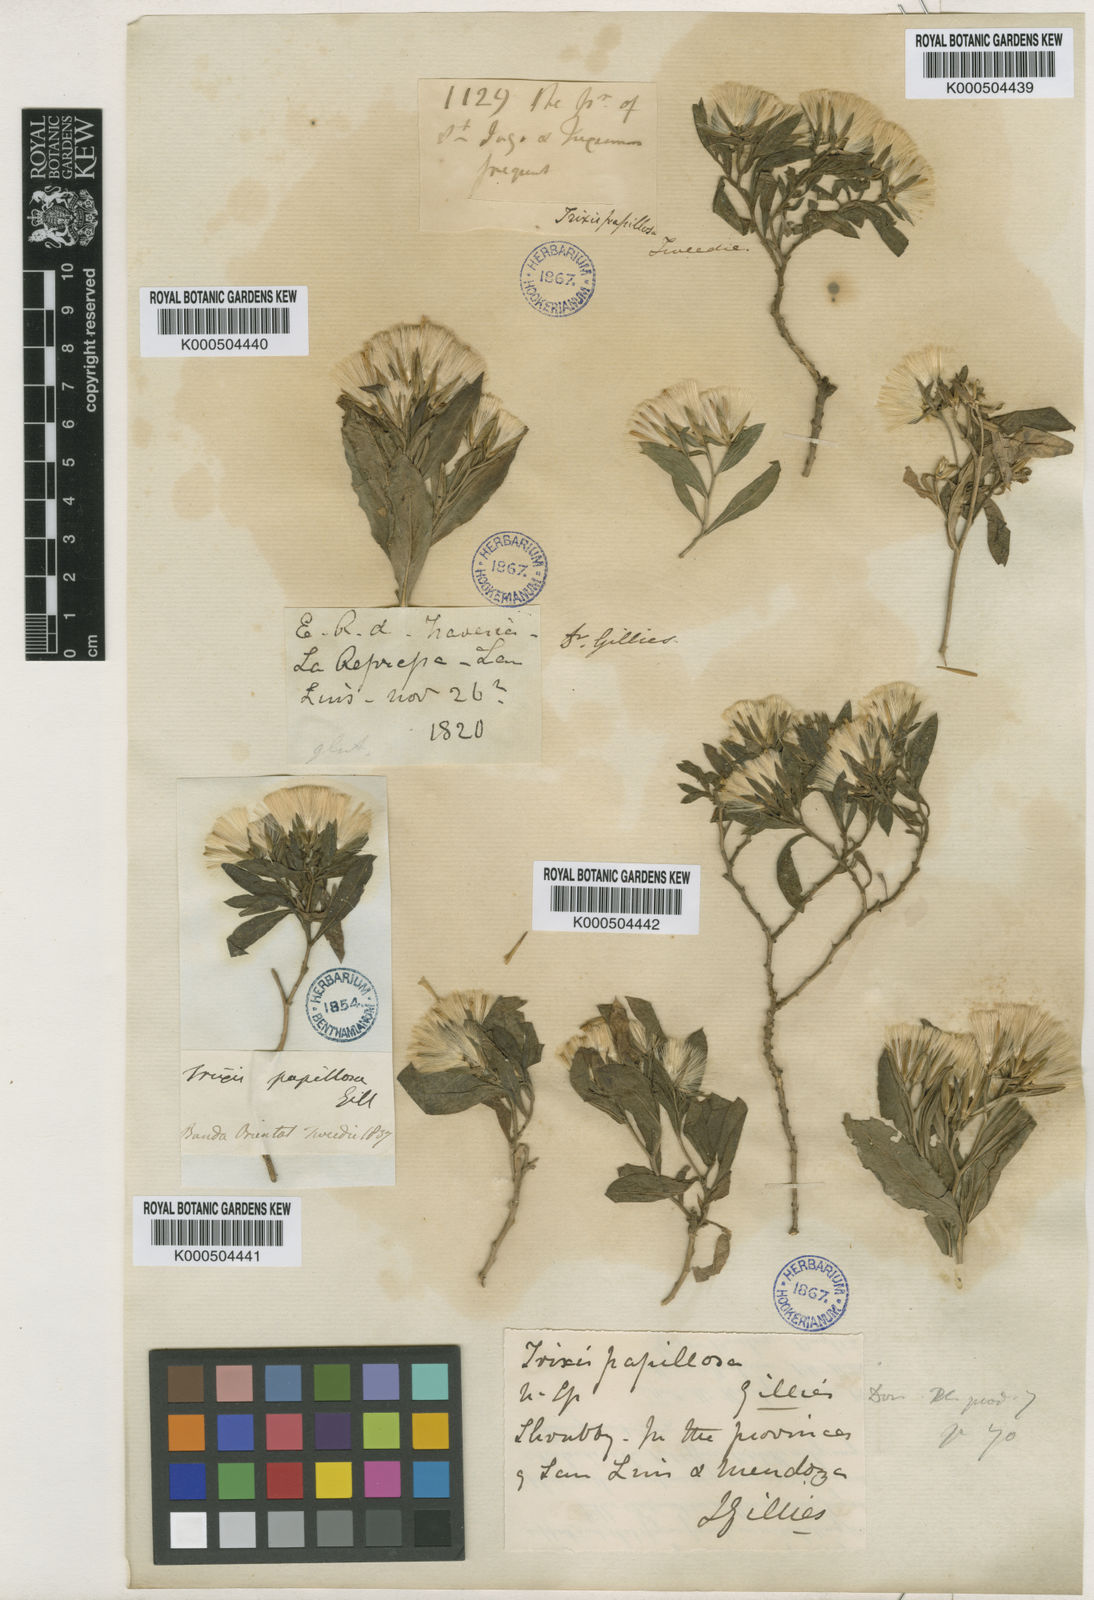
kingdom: Plantae
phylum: Tracheophyta
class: Magnoliopsida
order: Asterales
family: Asteraceae
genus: Trixis
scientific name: Trixis cacalioides
